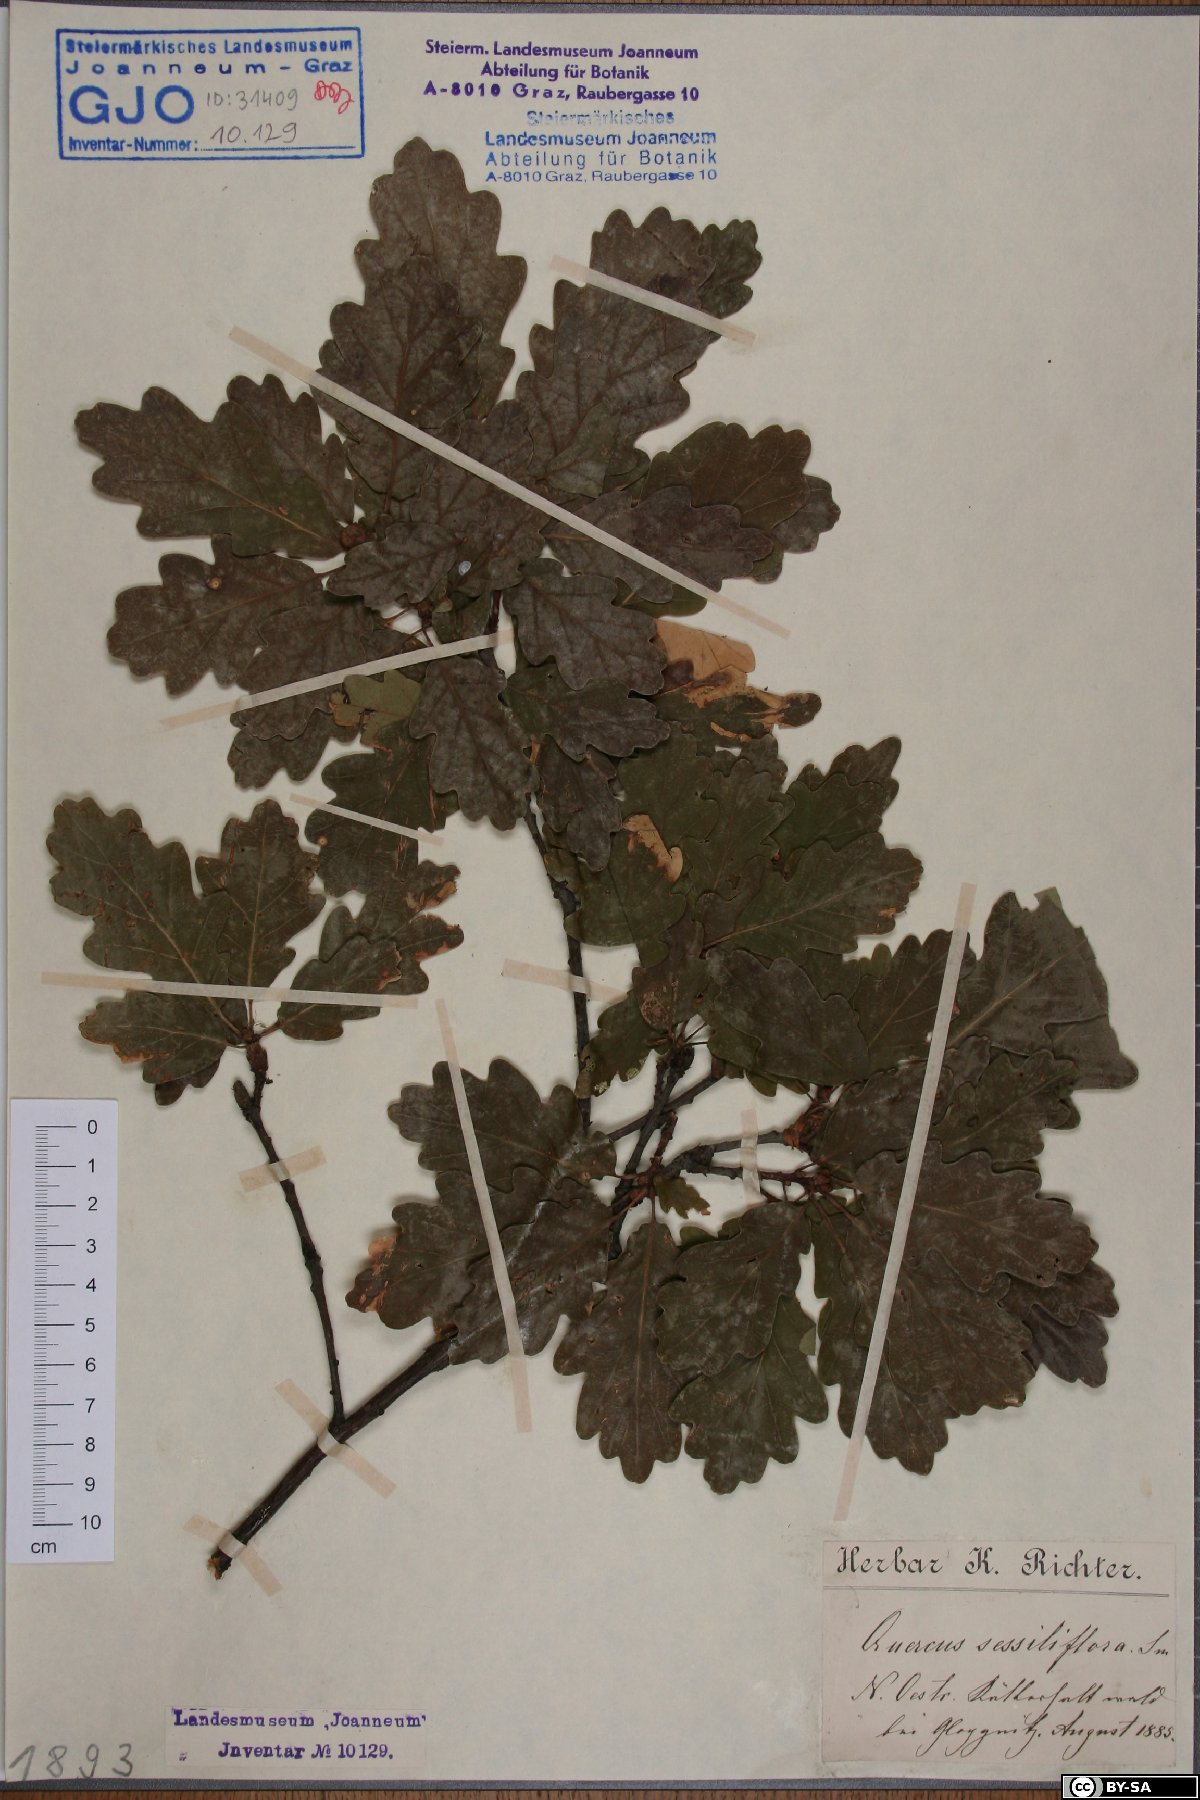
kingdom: Plantae
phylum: Tracheophyta
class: Magnoliopsida
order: Fagales
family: Fagaceae
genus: Quercus
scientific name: Quercus petraea
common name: Sessile oak
